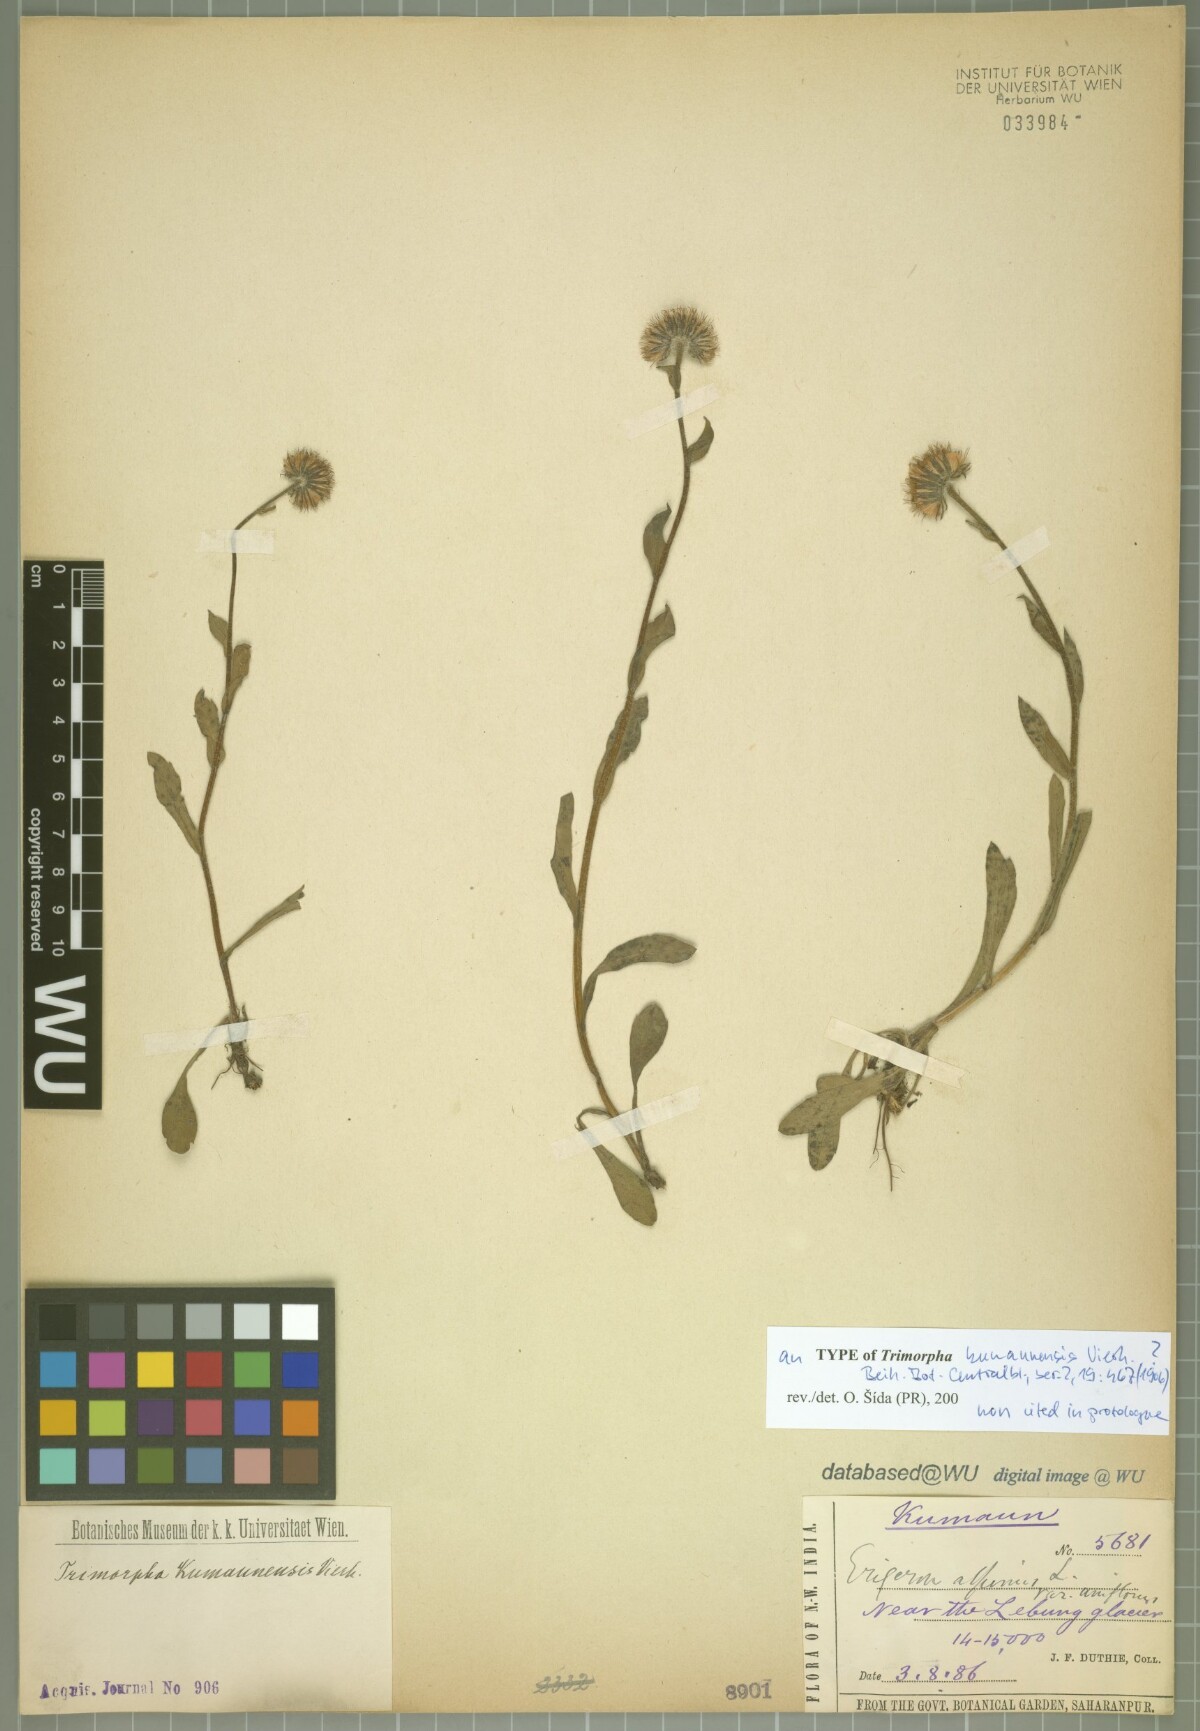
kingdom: Plantae
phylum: Tracheophyta
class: Magnoliopsida
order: Asterales
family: Asteraceae
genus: Erigeron
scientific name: Erigeron kumaunensis
